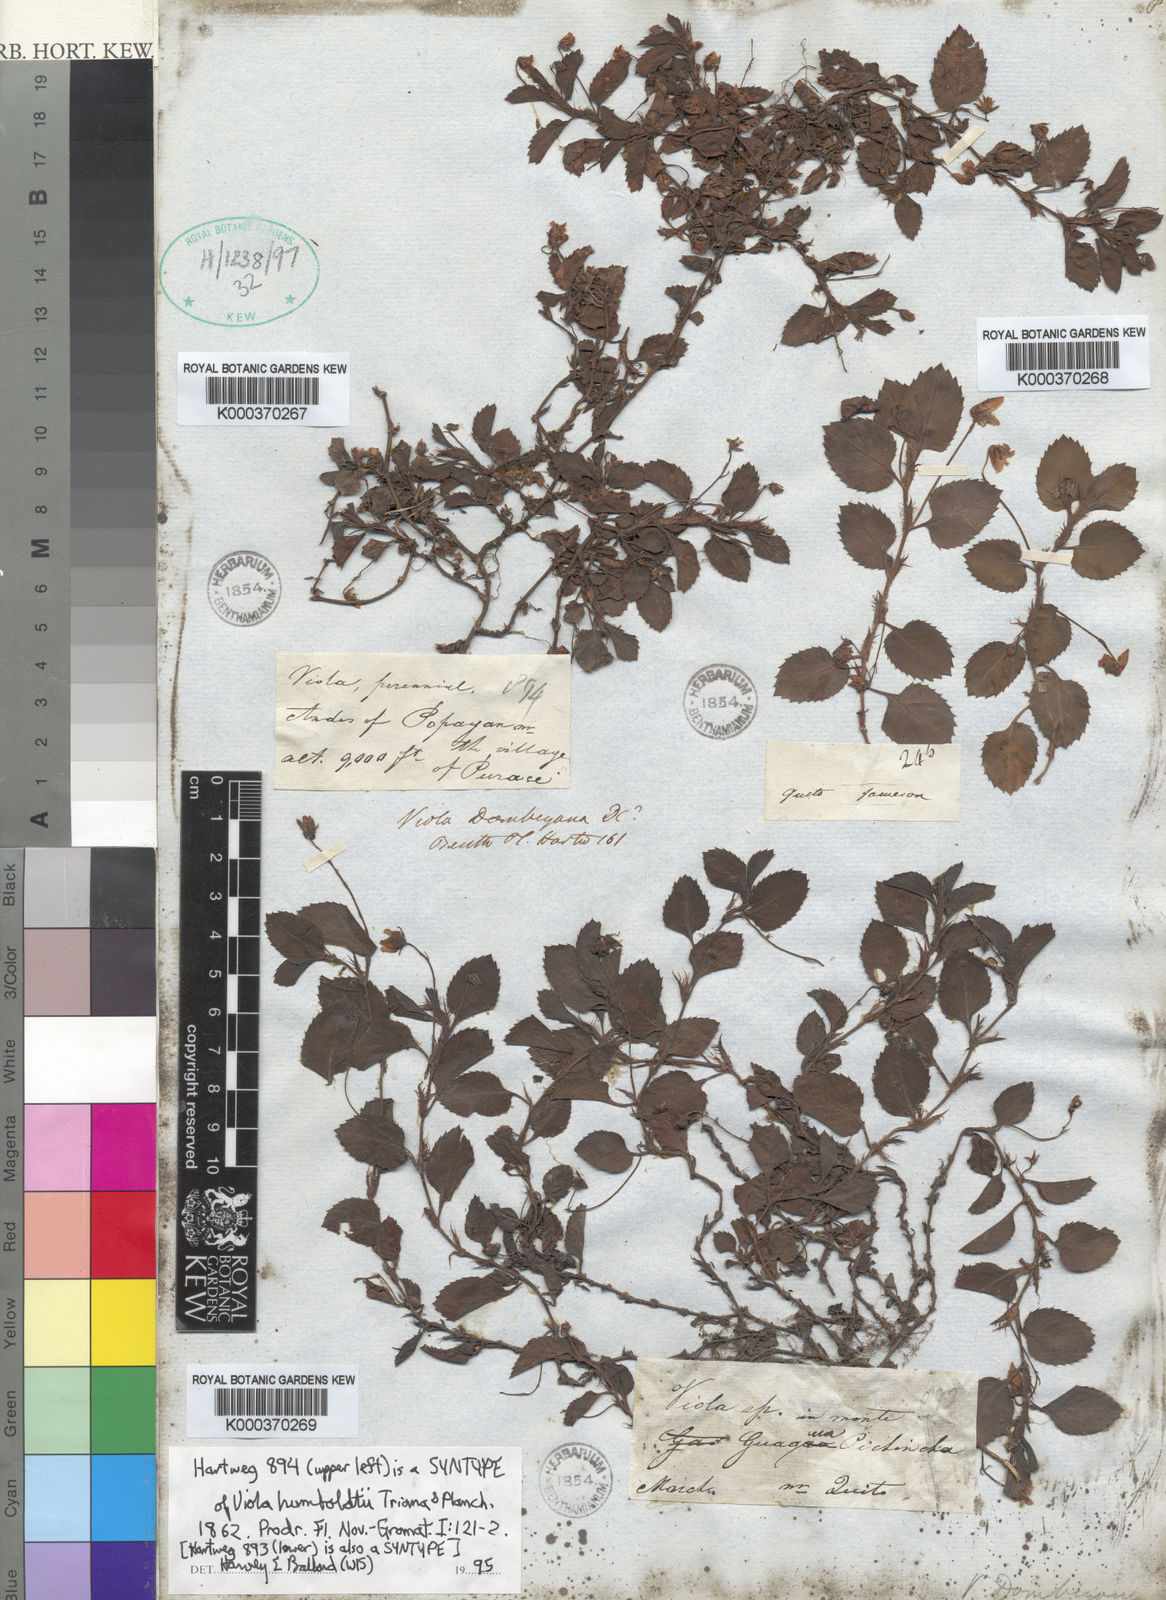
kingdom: Plantae
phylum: Tracheophyta
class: Magnoliopsida
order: Malpighiales
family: Violaceae
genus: Viola
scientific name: Viola dombeyana
